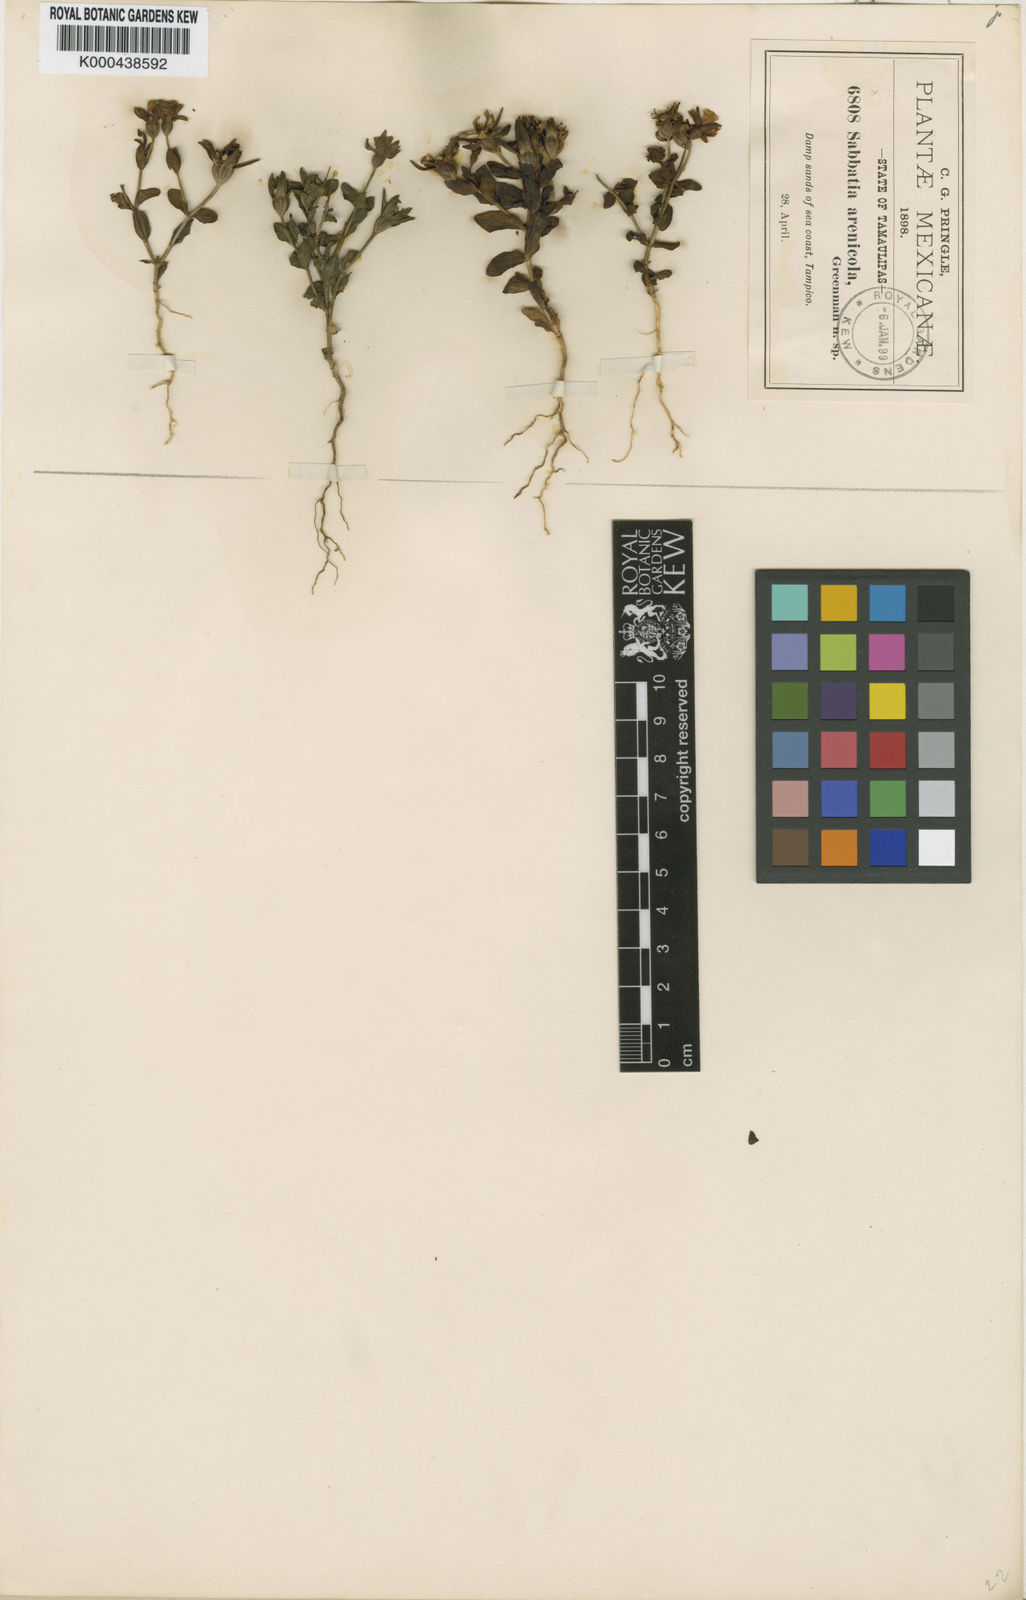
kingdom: Plantae
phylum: Tracheophyta
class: Magnoliopsida
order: Gentianales
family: Gentianaceae
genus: Sabatia
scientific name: Sabatia arenicola
